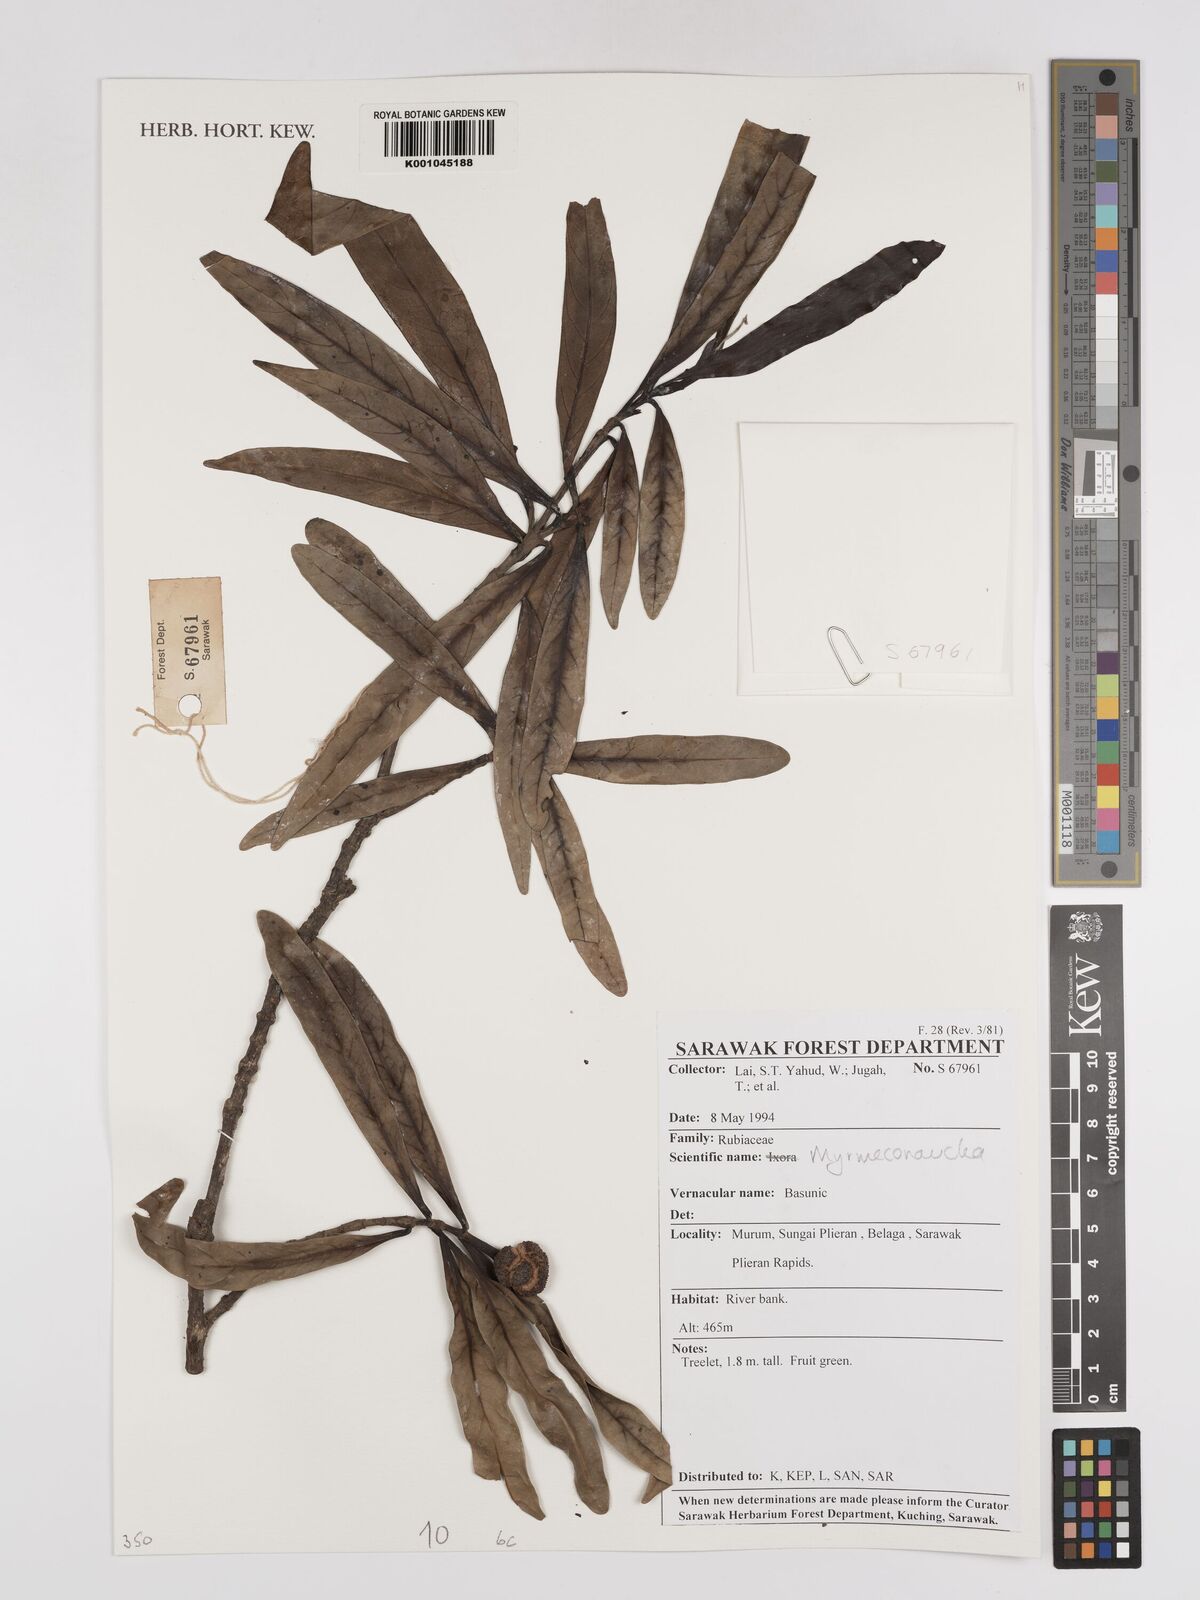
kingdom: Plantae
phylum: Tracheophyta
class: Magnoliopsida
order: Gentianales
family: Rubiaceae
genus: Myrmeconauclea
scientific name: Myrmeconauclea
